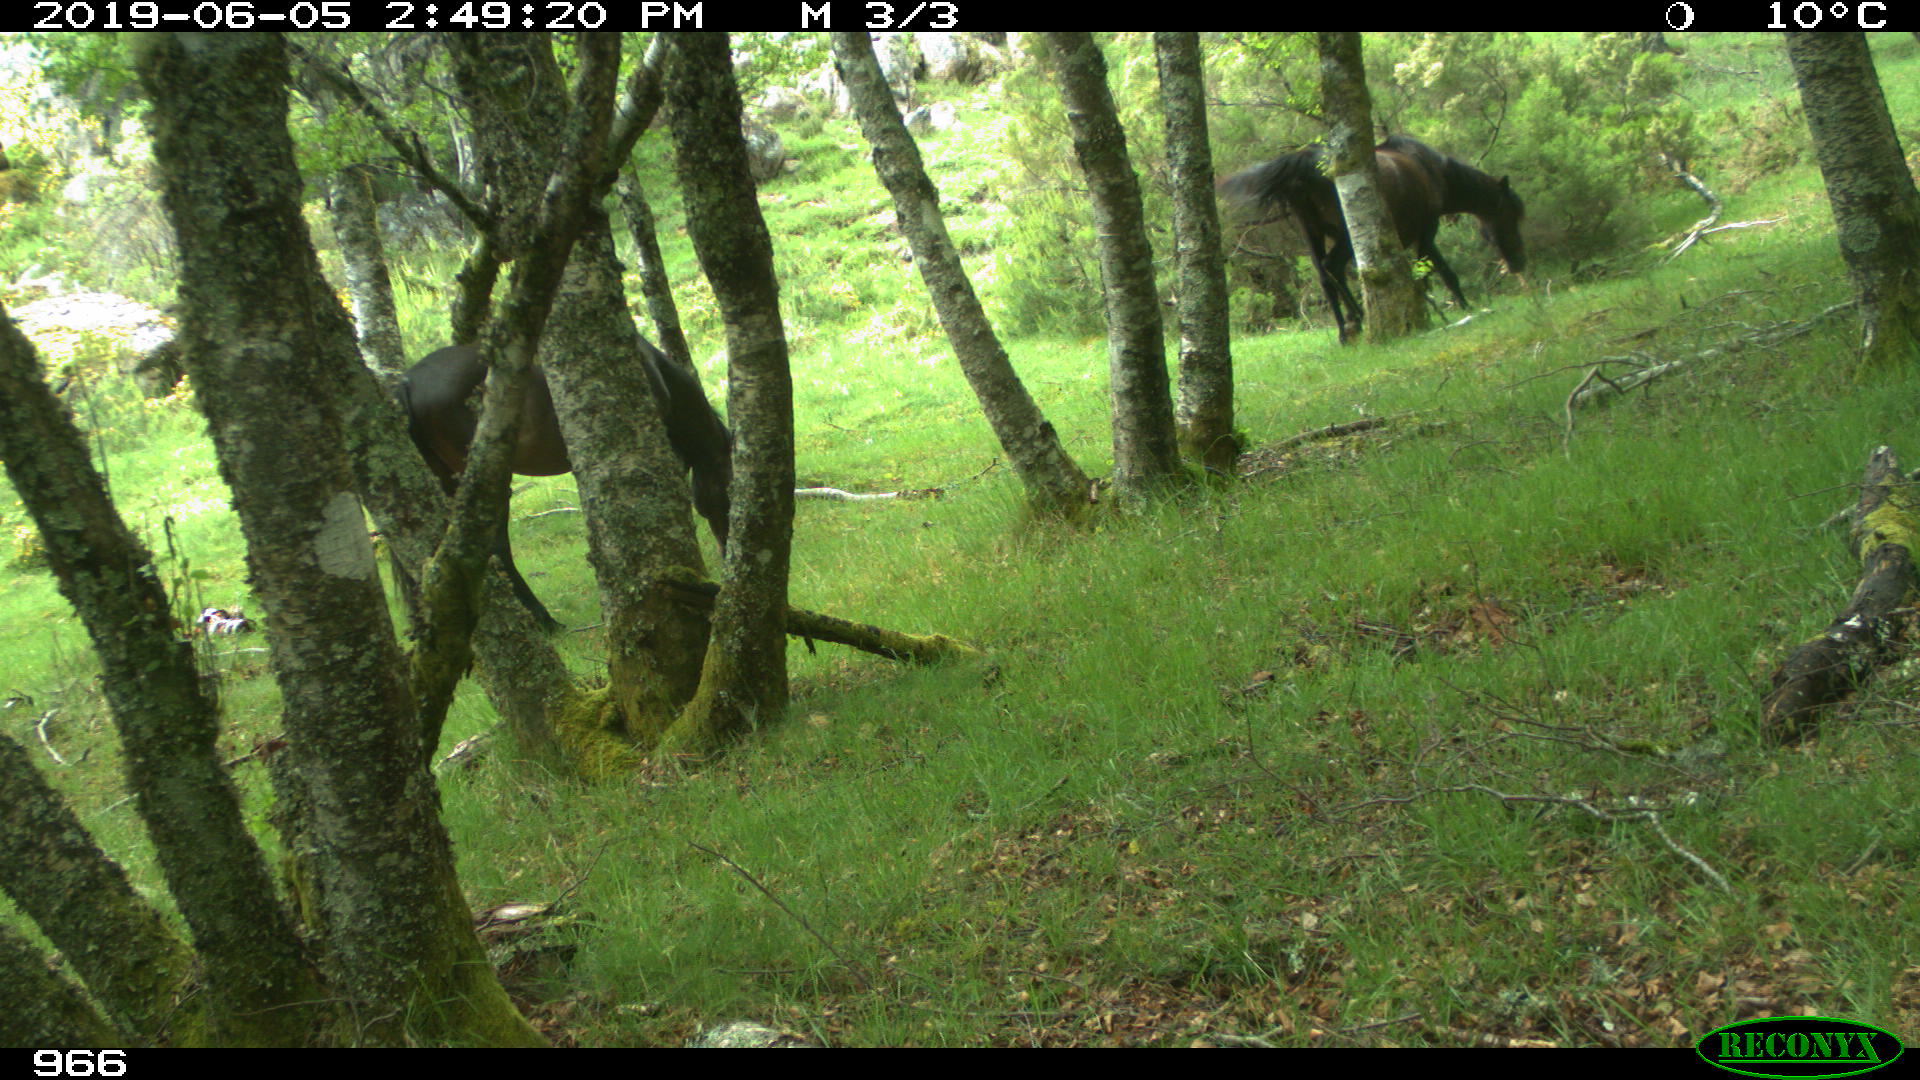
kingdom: Animalia
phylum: Chordata
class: Mammalia
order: Perissodactyla
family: Equidae
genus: Equus
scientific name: Equus caballus
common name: Horse
